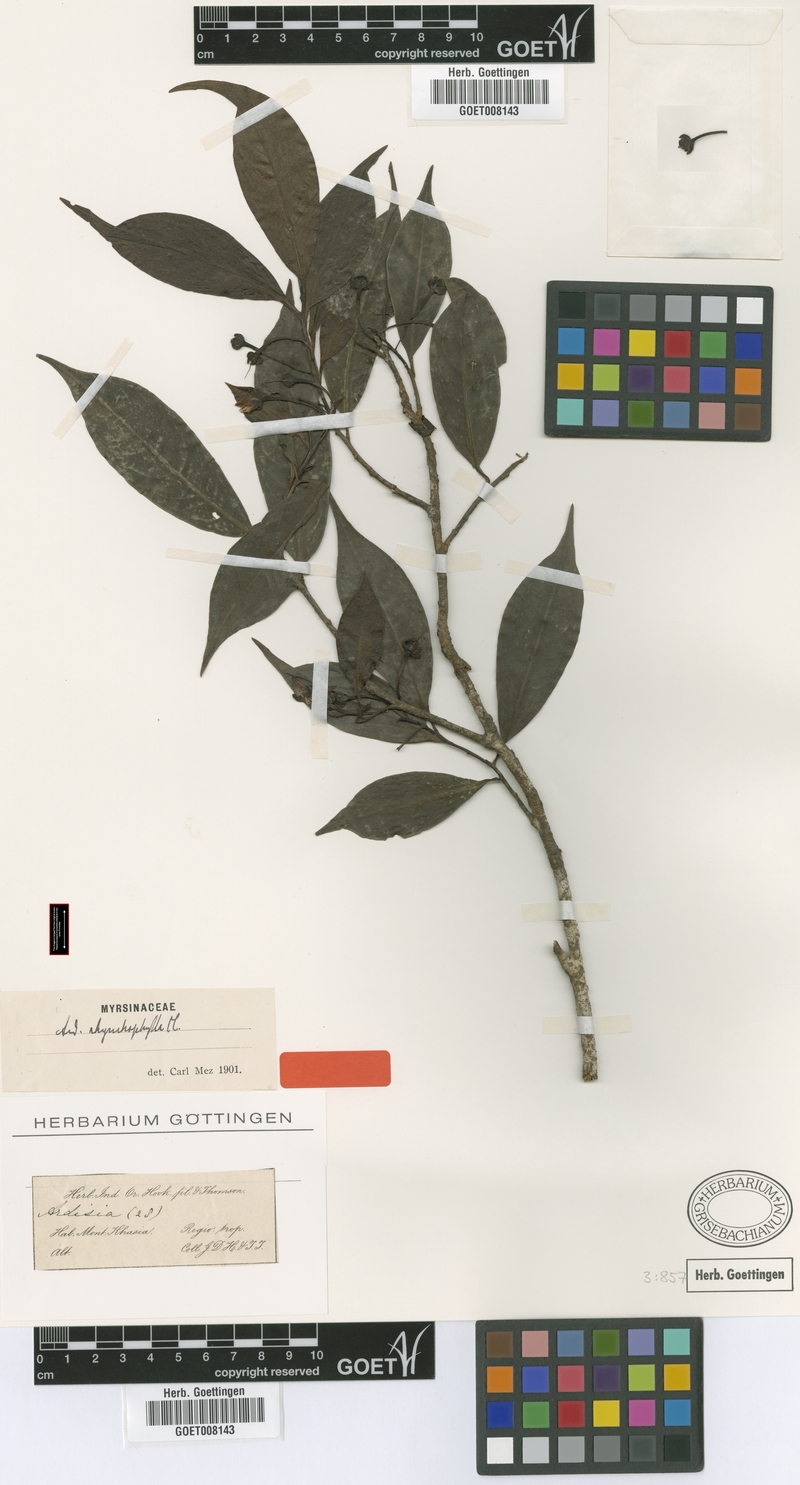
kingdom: Plantae
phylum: Tracheophyta
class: Magnoliopsida
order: Ericales
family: Primulaceae
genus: Ardisia
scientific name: Ardisia rhynchophylla
